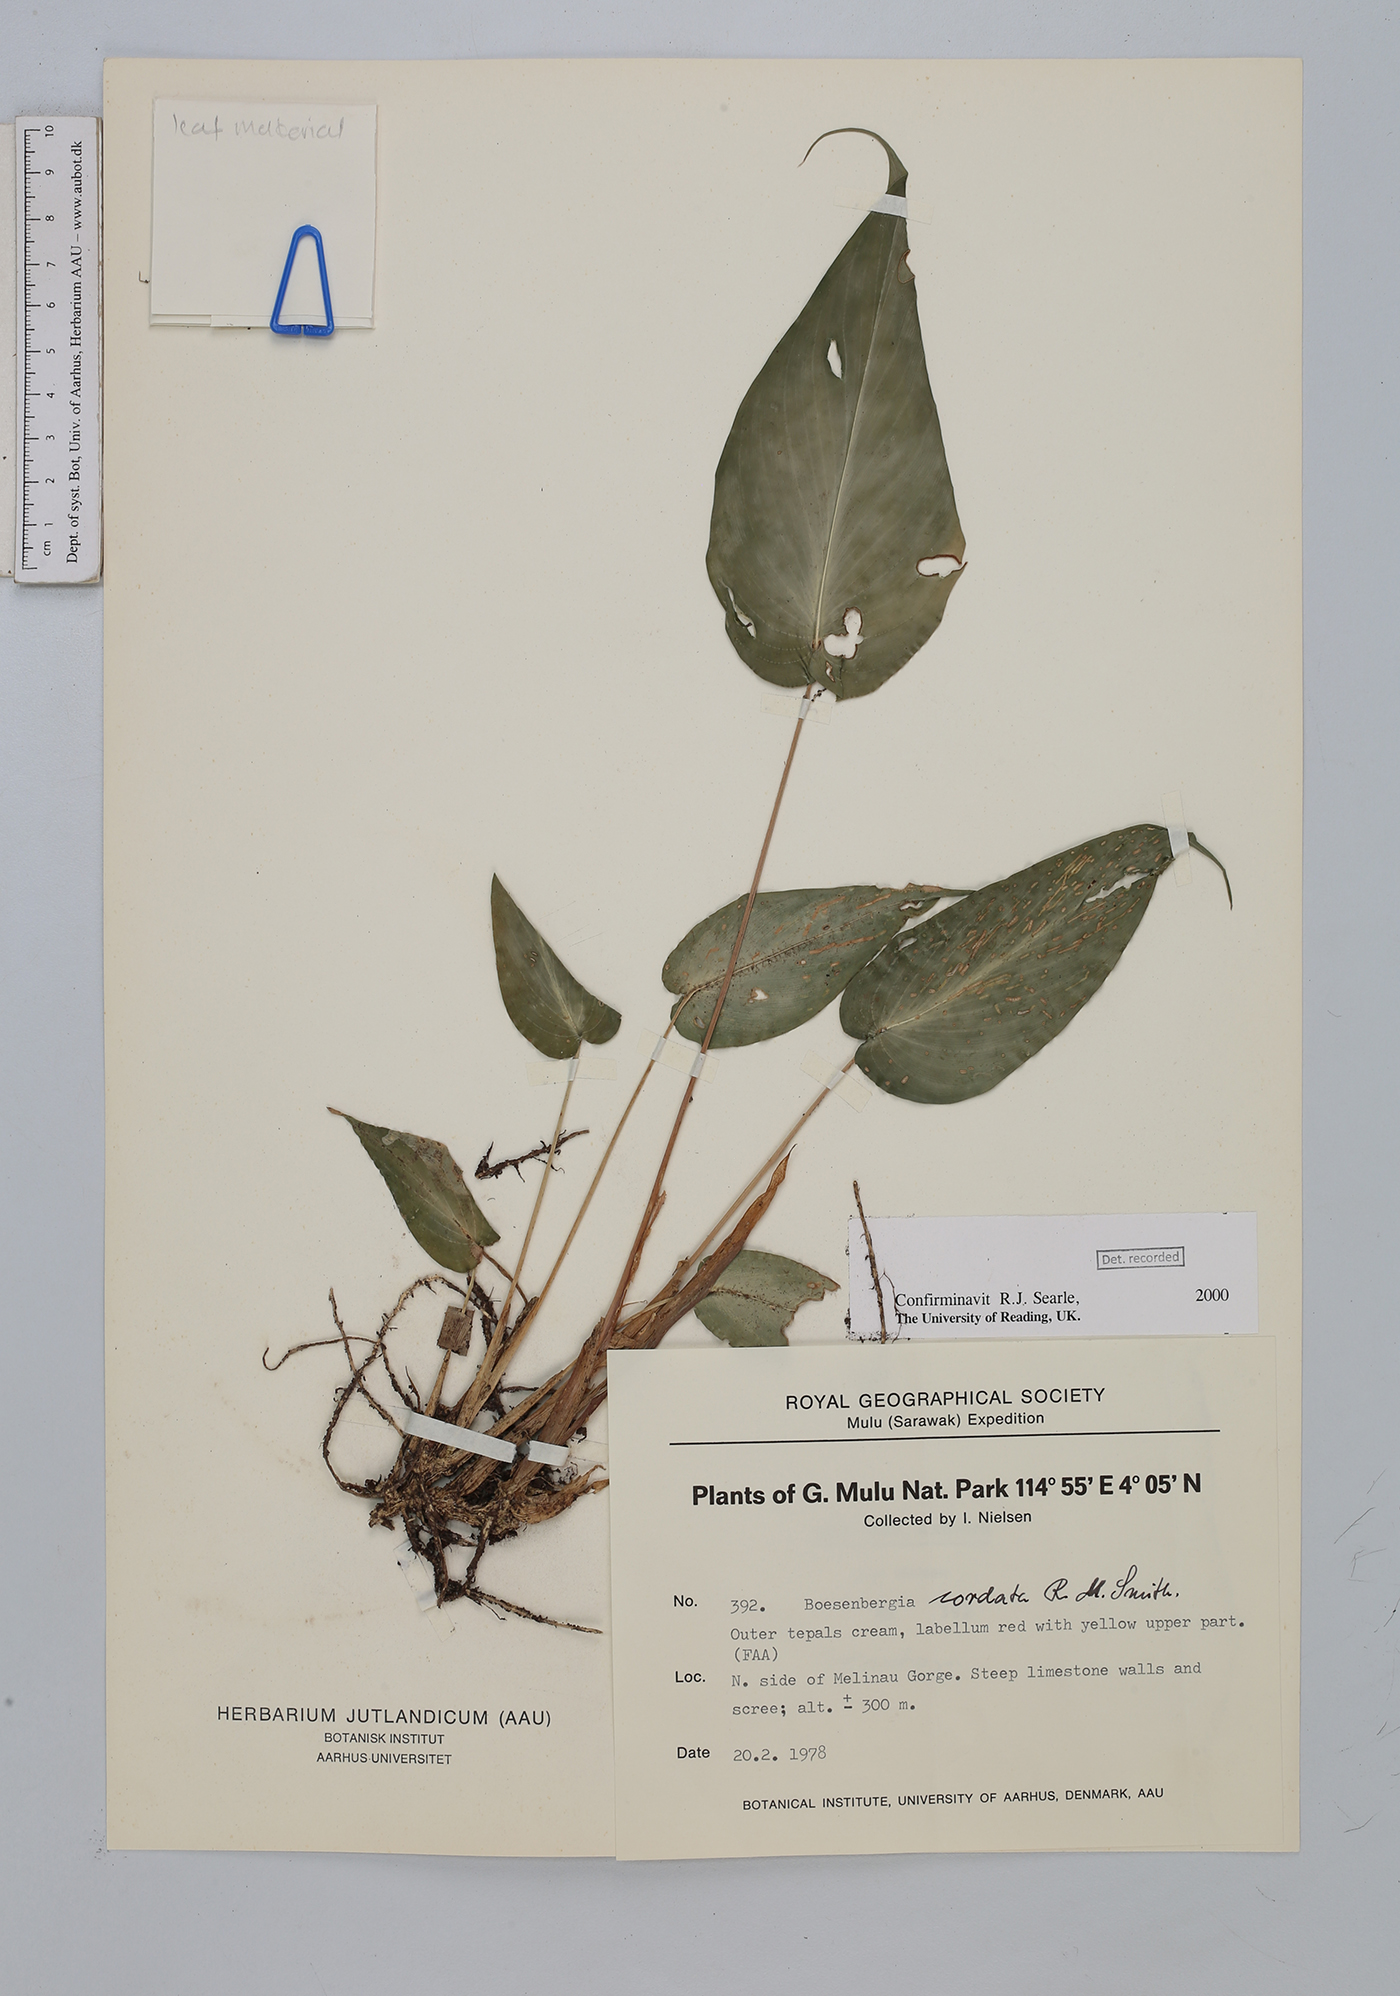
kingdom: Plantae
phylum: Tracheophyta
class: Liliopsida
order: Zingiberales
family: Zingiberaceae
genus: Boesenbergia
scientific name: Boesenbergia cordata
